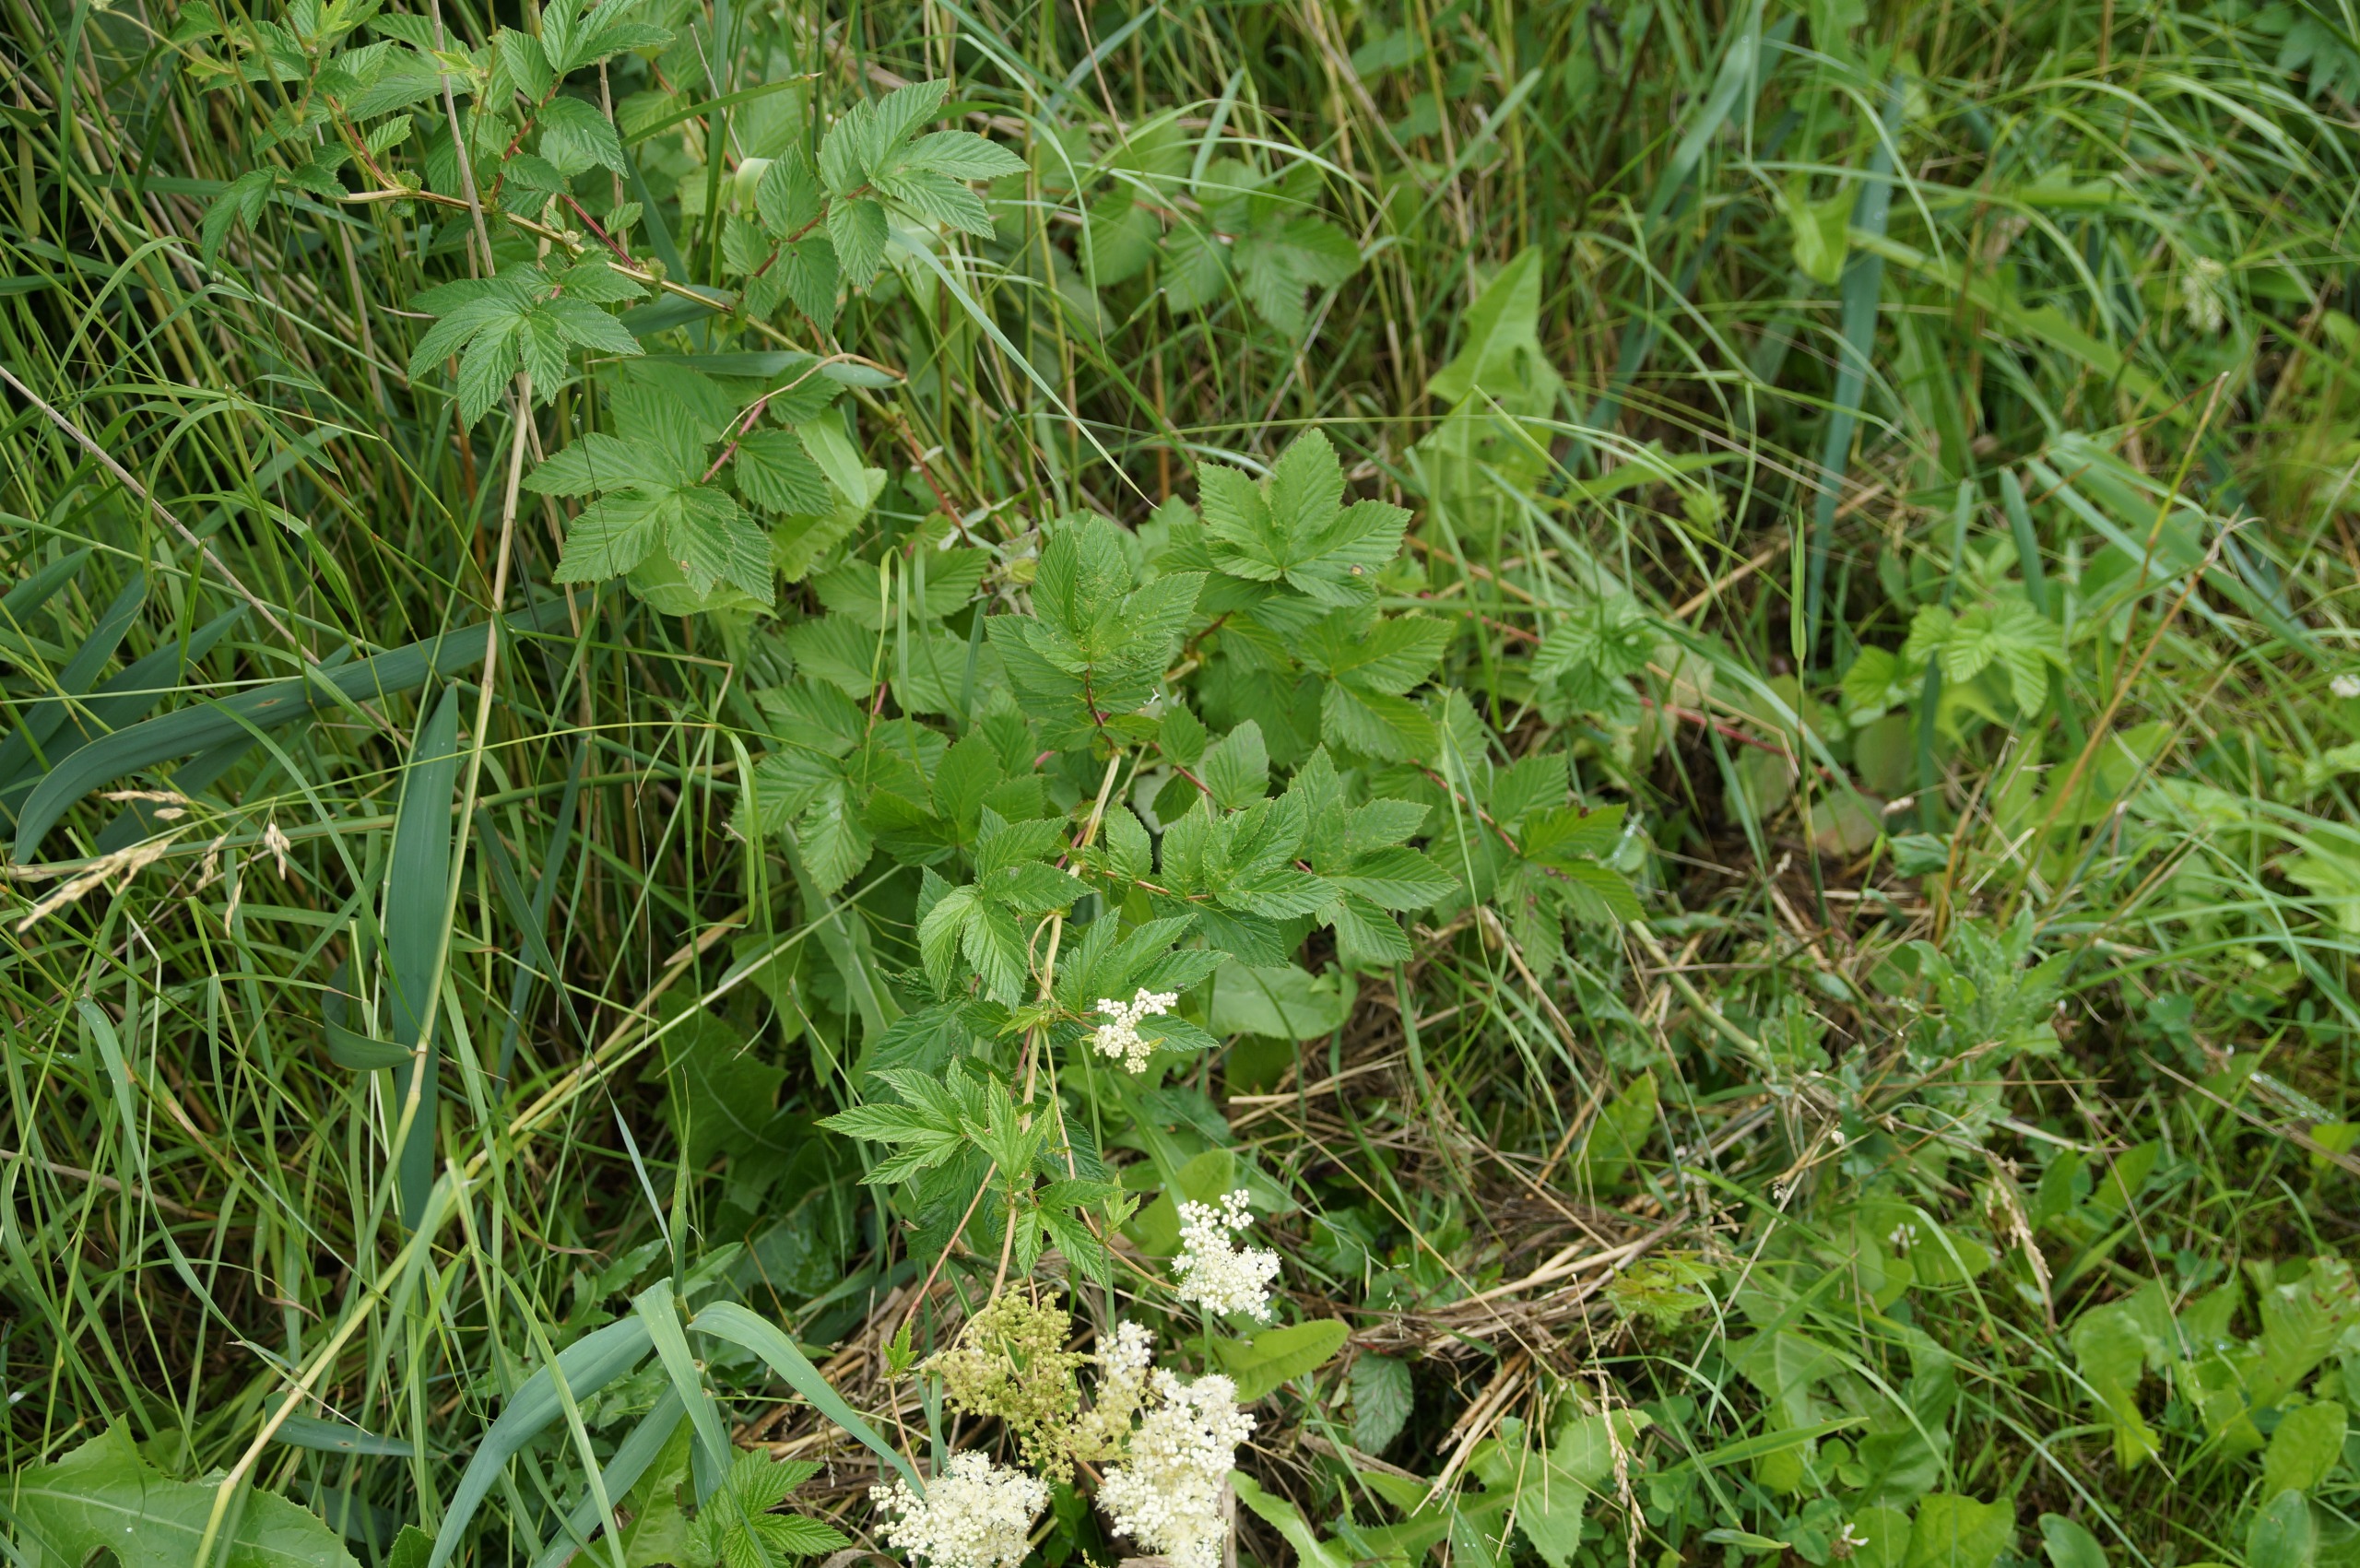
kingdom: Plantae
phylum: Tracheophyta
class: Magnoliopsida
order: Rosales
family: Rosaceae
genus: Filipendula
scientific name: Filipendula ulmaria
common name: Almindelig mjødurt
